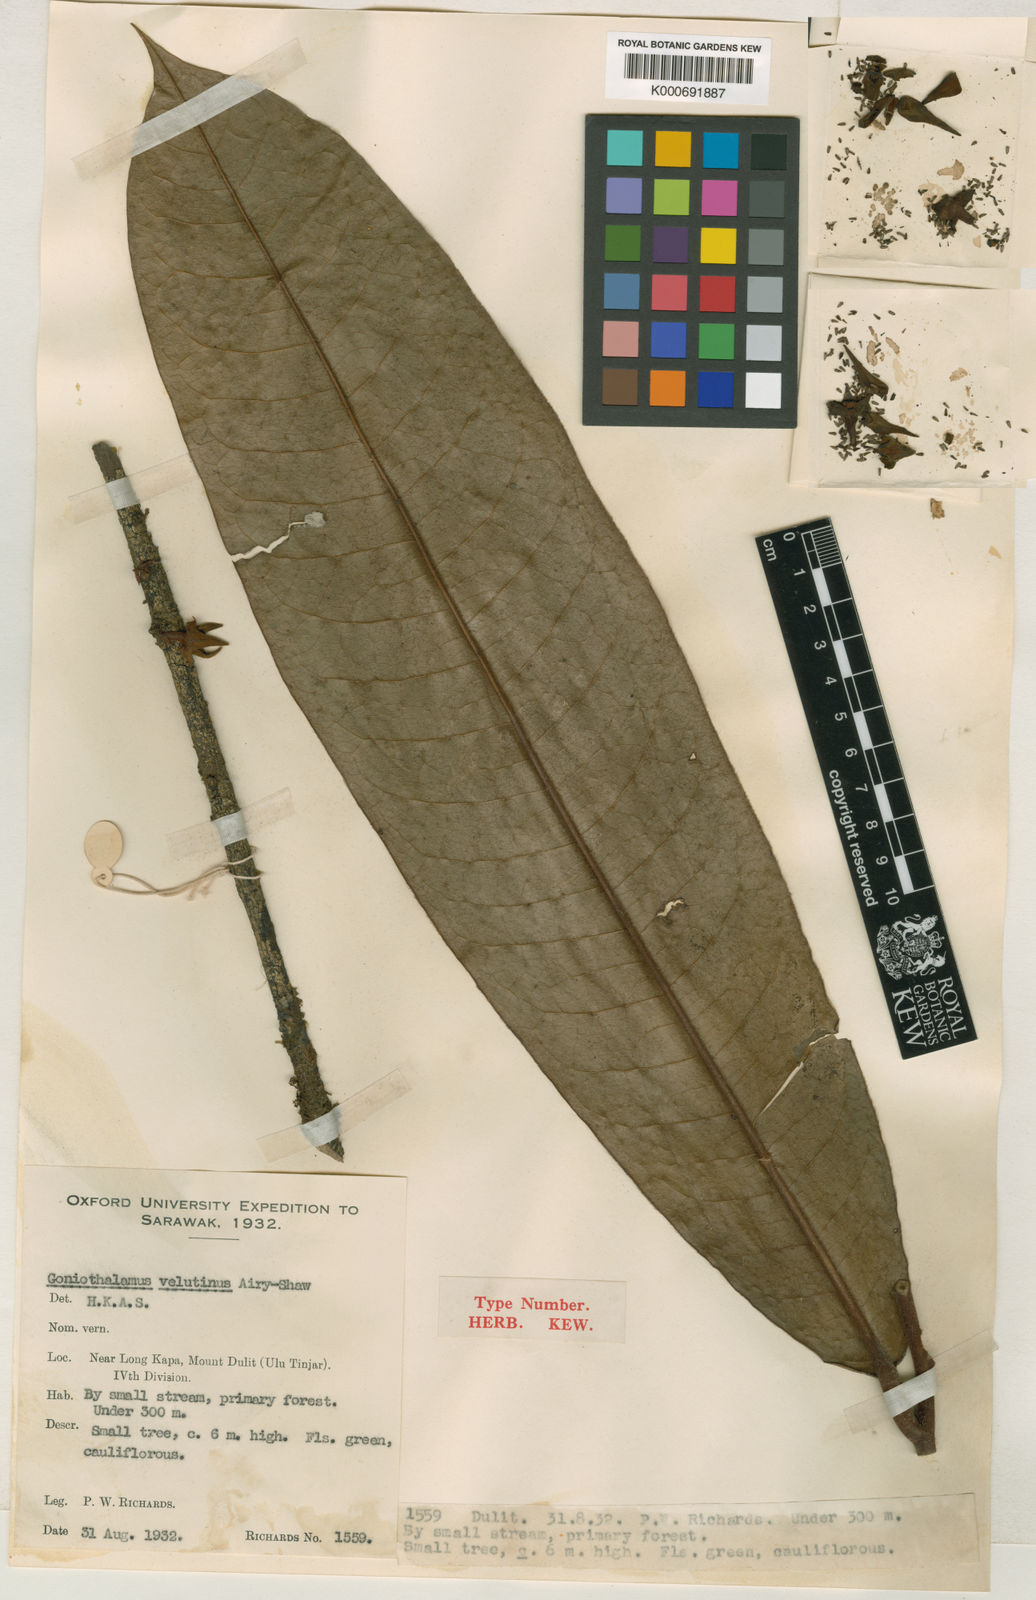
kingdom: Plantae
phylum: Tracheophyta
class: Magnoliopsida
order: Magnoliales
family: Annonaceae
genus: Goniothalamus
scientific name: Goniothalamus velutinus
